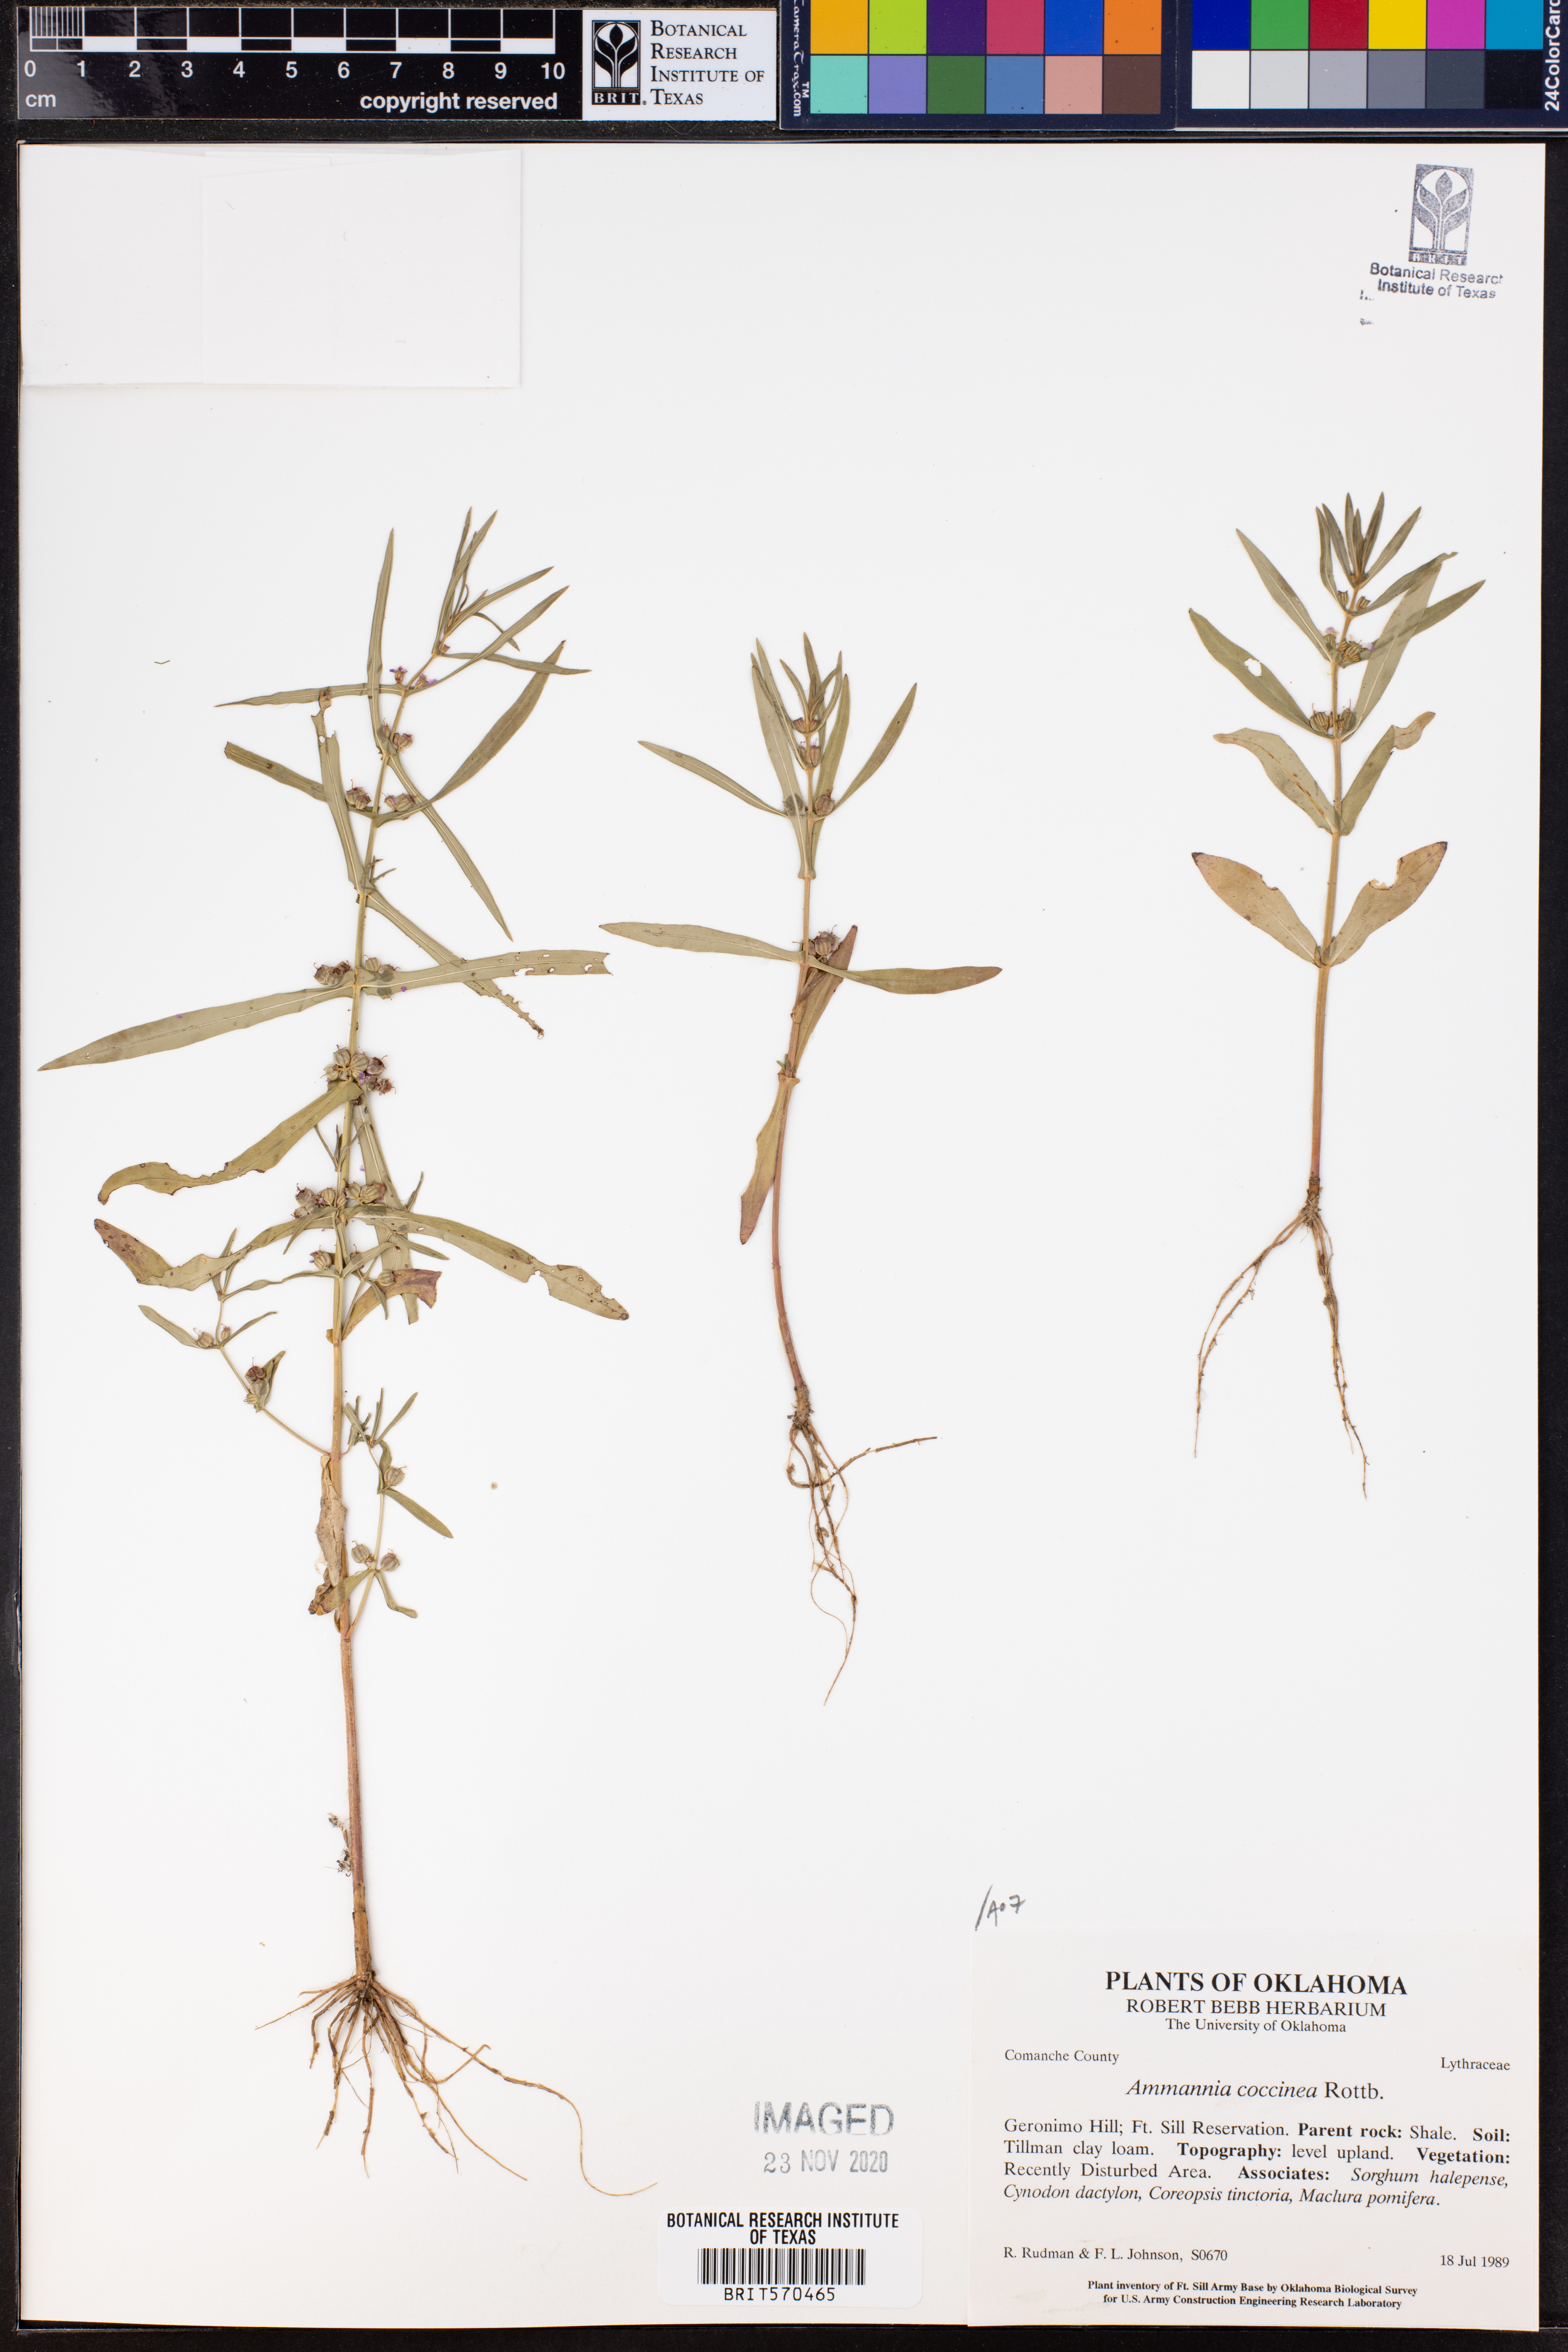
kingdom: Plantae
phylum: Tracheophyta
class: Magnoliopsida
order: Myrtales
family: Lythraceae
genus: Ammannia
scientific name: Ammannia coccinea
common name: Valley redstem
